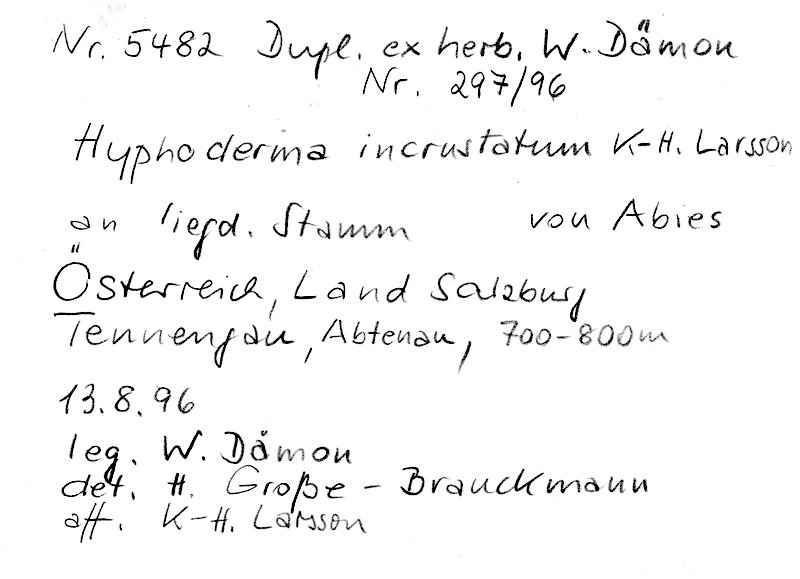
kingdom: Fungi
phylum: Basidiomycota
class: Agaricomycetes
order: Polyporales
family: Hyphodermataceae
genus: Hyphoderma
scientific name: Hyphoderma incrustatum
